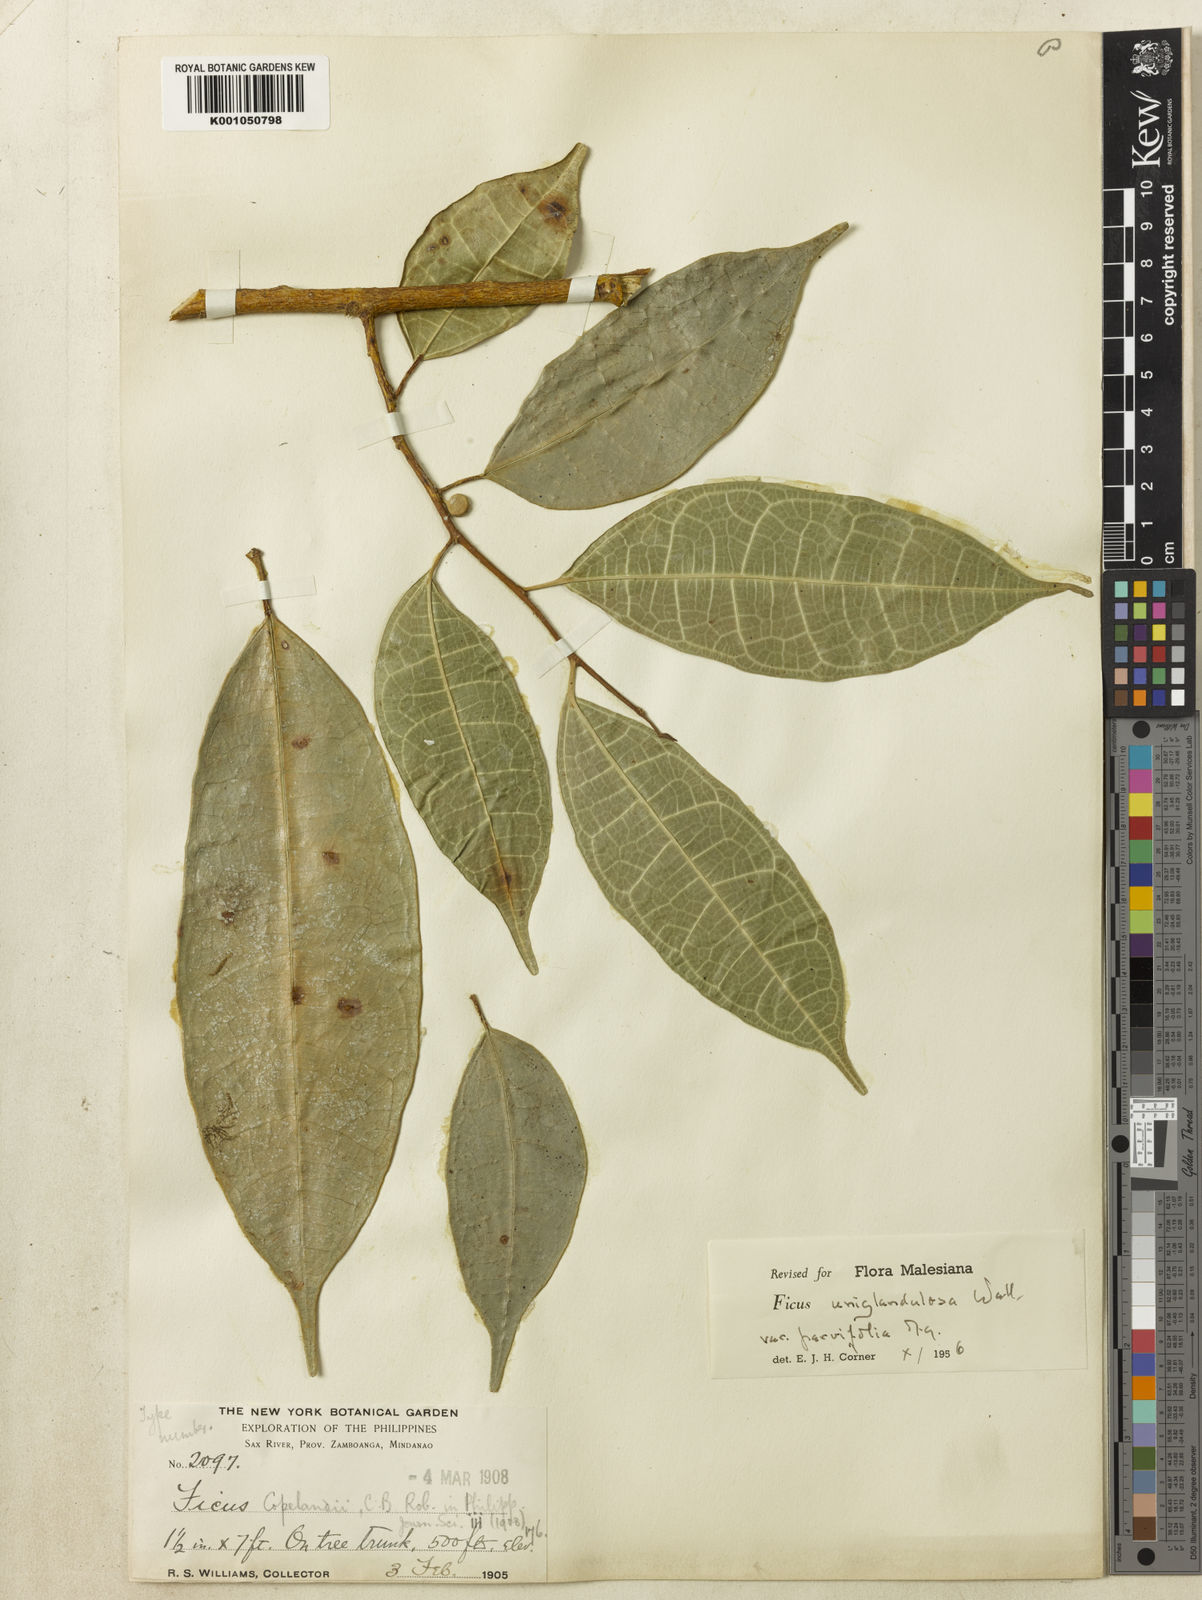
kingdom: Plantae
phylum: Tracheophyta
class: Magnoliopsida
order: Rosales
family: Moraceae
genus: Ficus
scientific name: Ficus uniglandulosa
